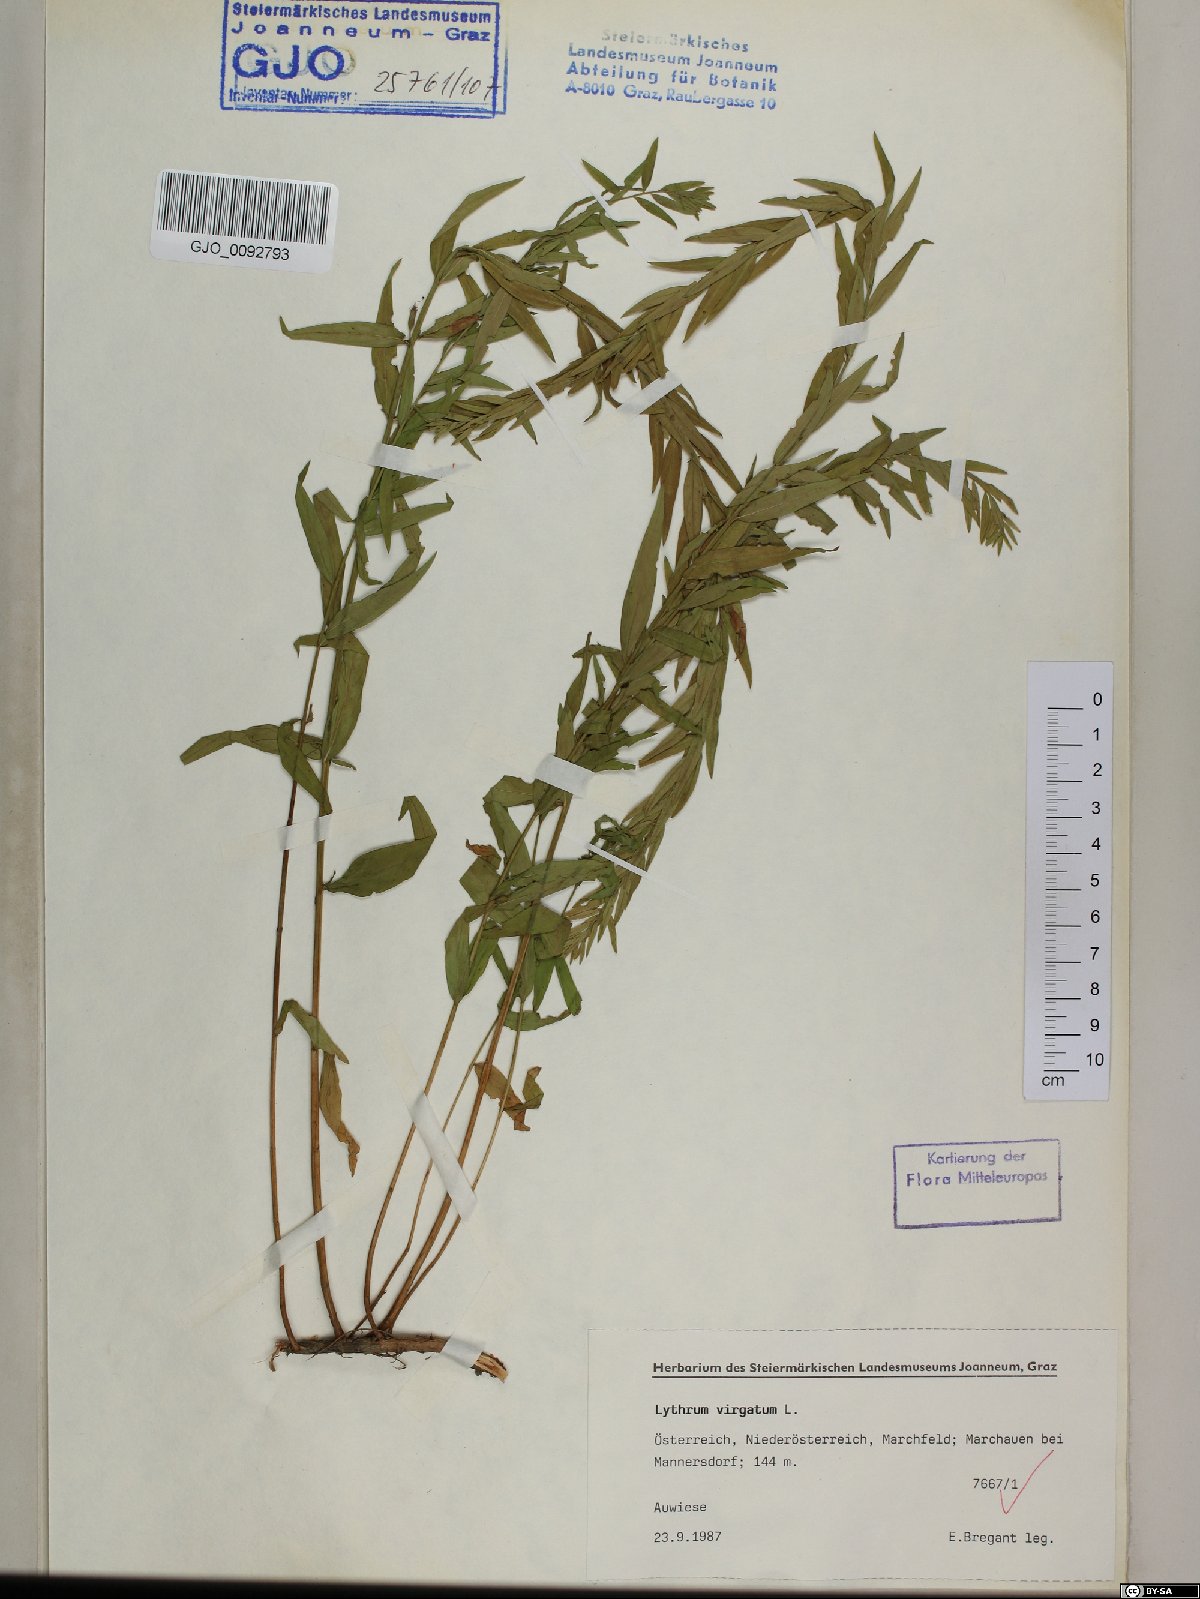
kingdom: Plantae
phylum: Tracheophyta
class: Magnoliopsida
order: Myrtales
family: Lythraceae
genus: Lythrum
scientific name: Lythrum virgatum
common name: European wand loosestrife
